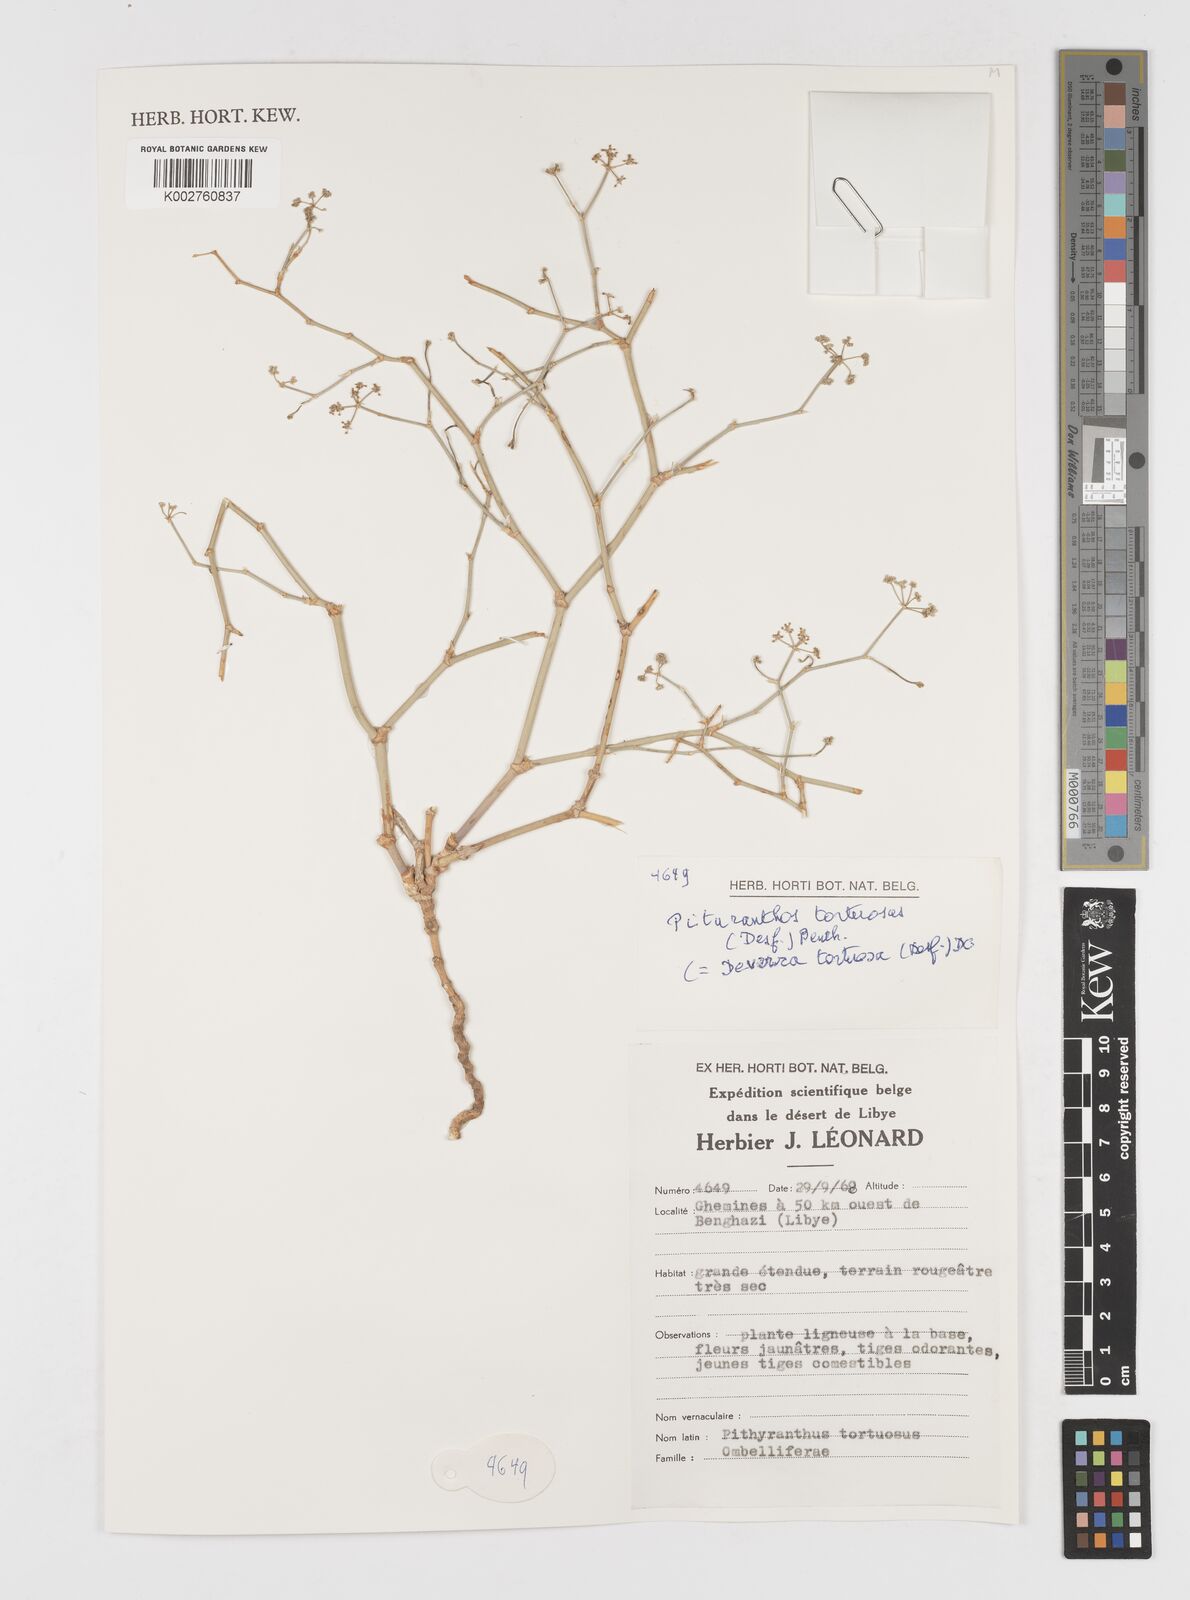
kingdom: Plantae
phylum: Tracheophyta
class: Magnoliopsida
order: Apiales
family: Apiaceae
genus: Deverra
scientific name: Deverra tortuosa
